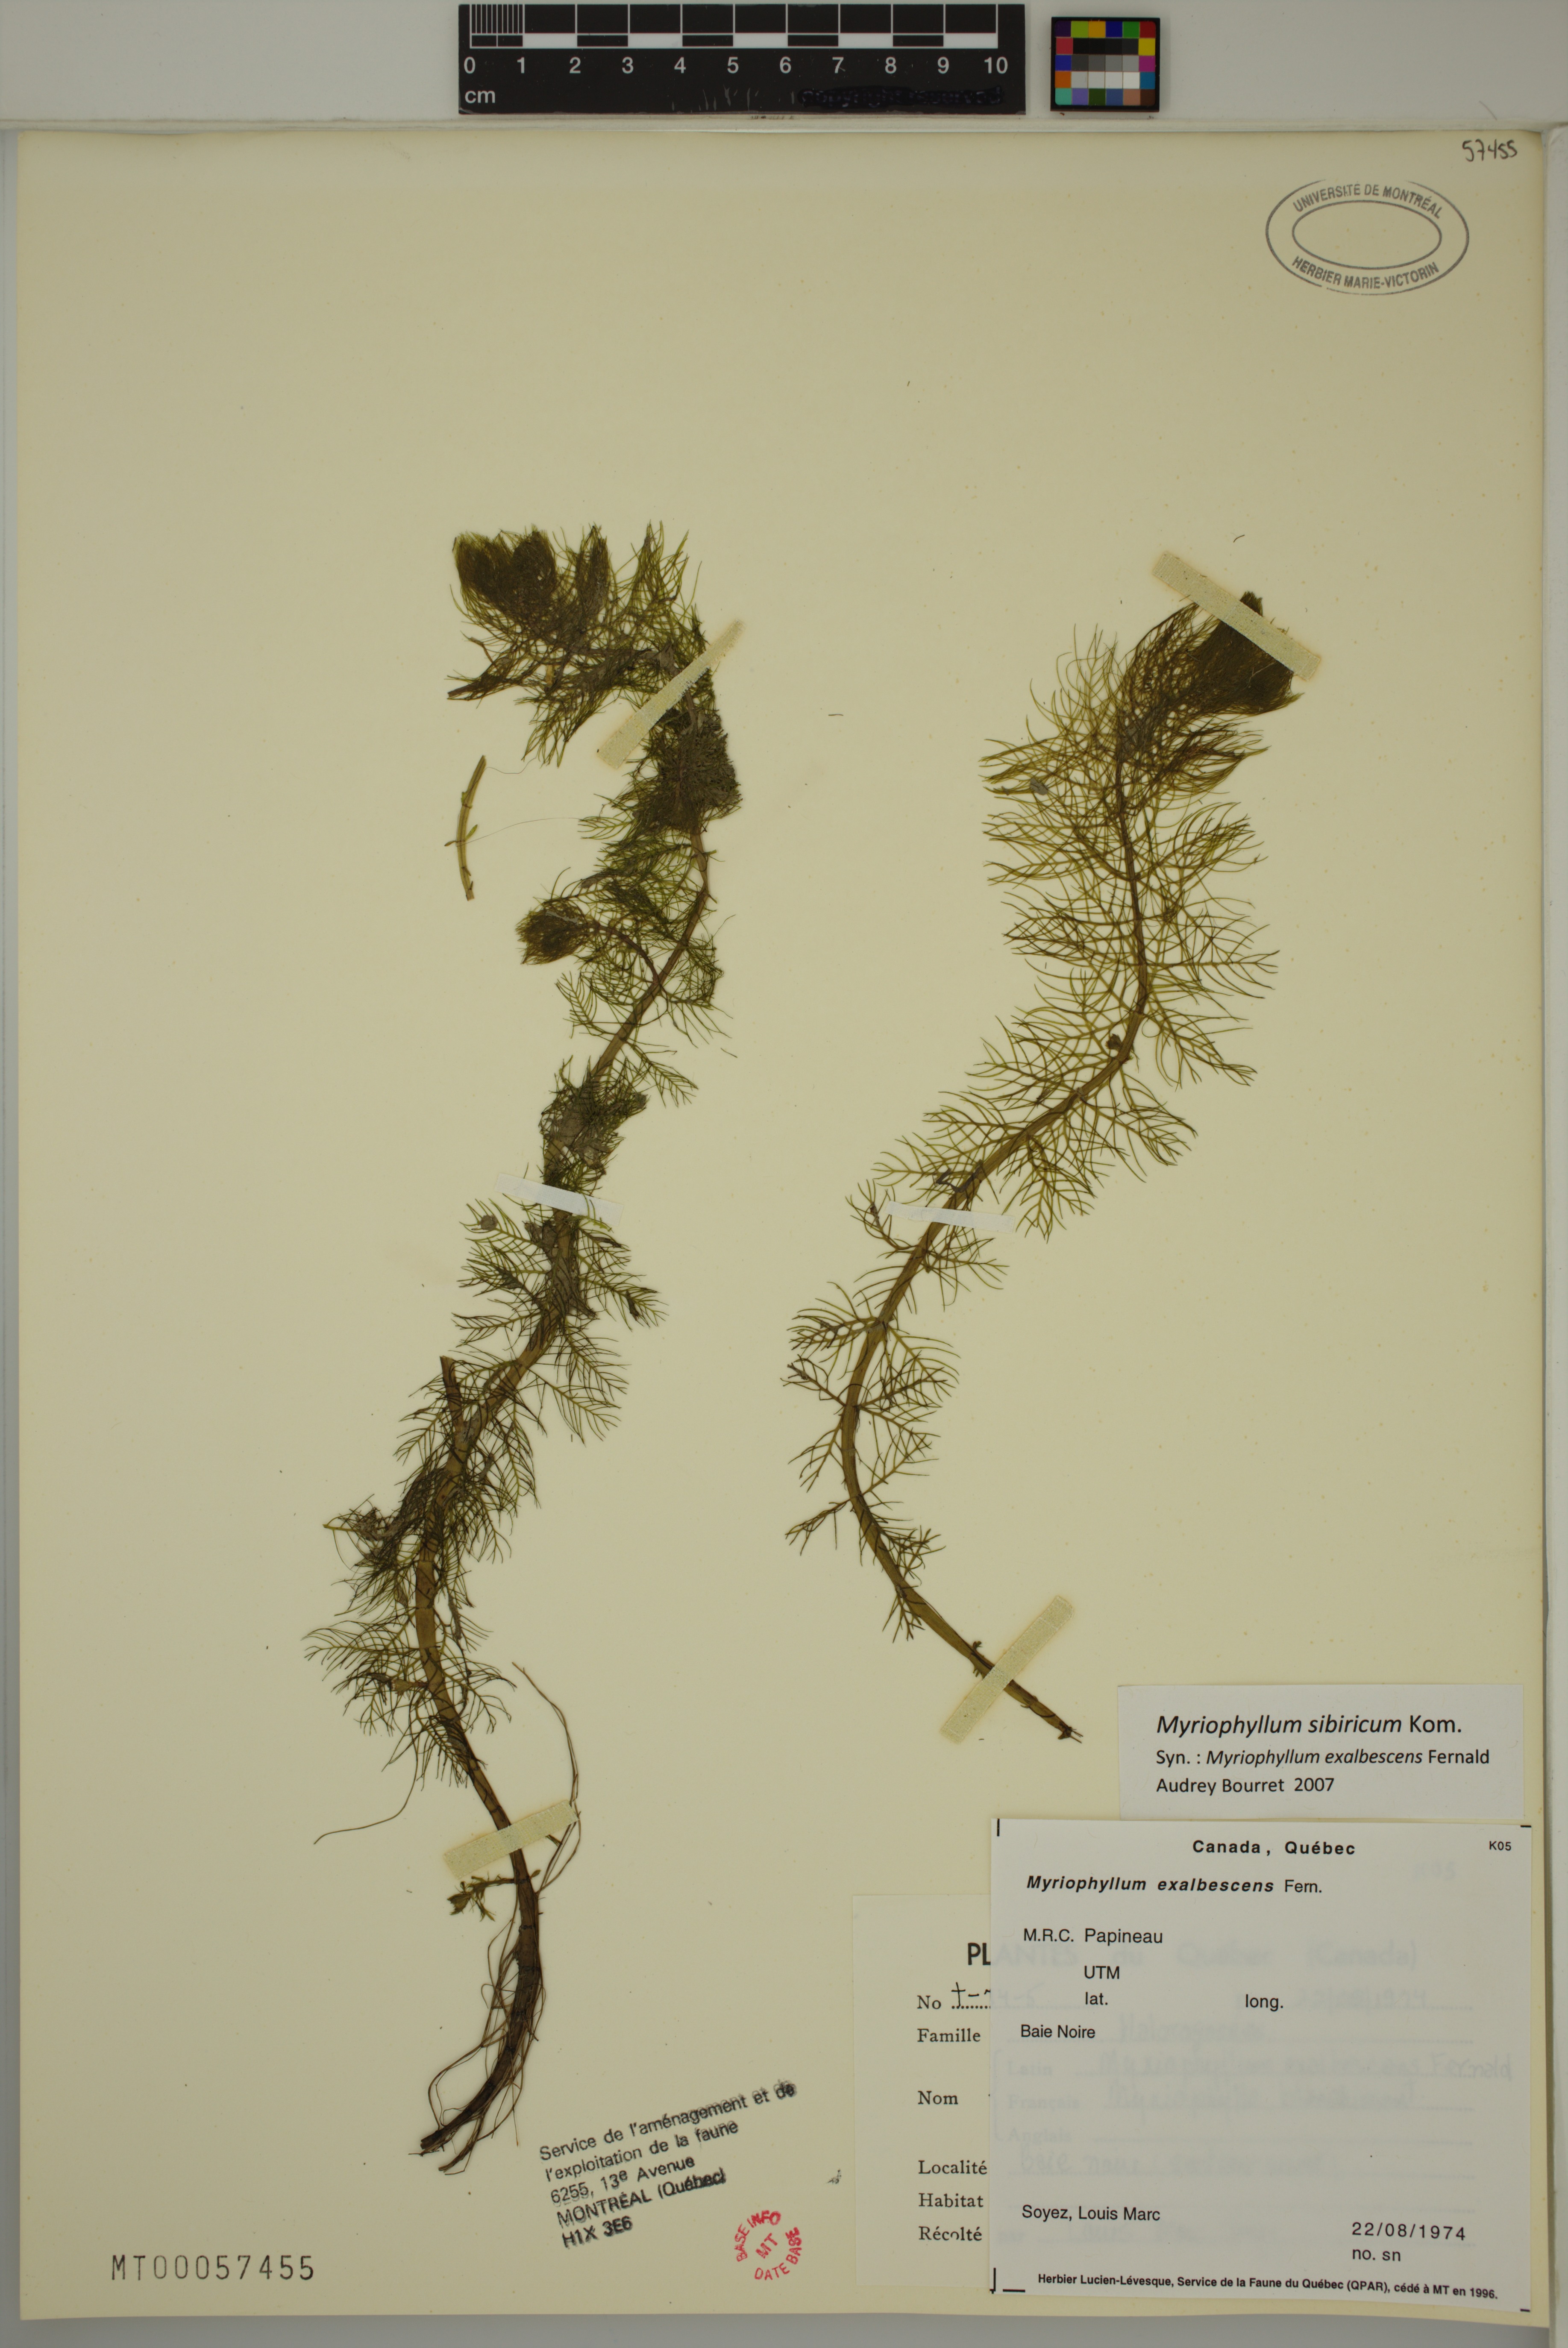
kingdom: Plantae
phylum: Tracheophyta
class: Magnoliopsida
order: Saxifragales
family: Haloragaceae
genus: Myriophyllum
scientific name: Myriophyllum sibiricum
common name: Siberian water-milfoil
